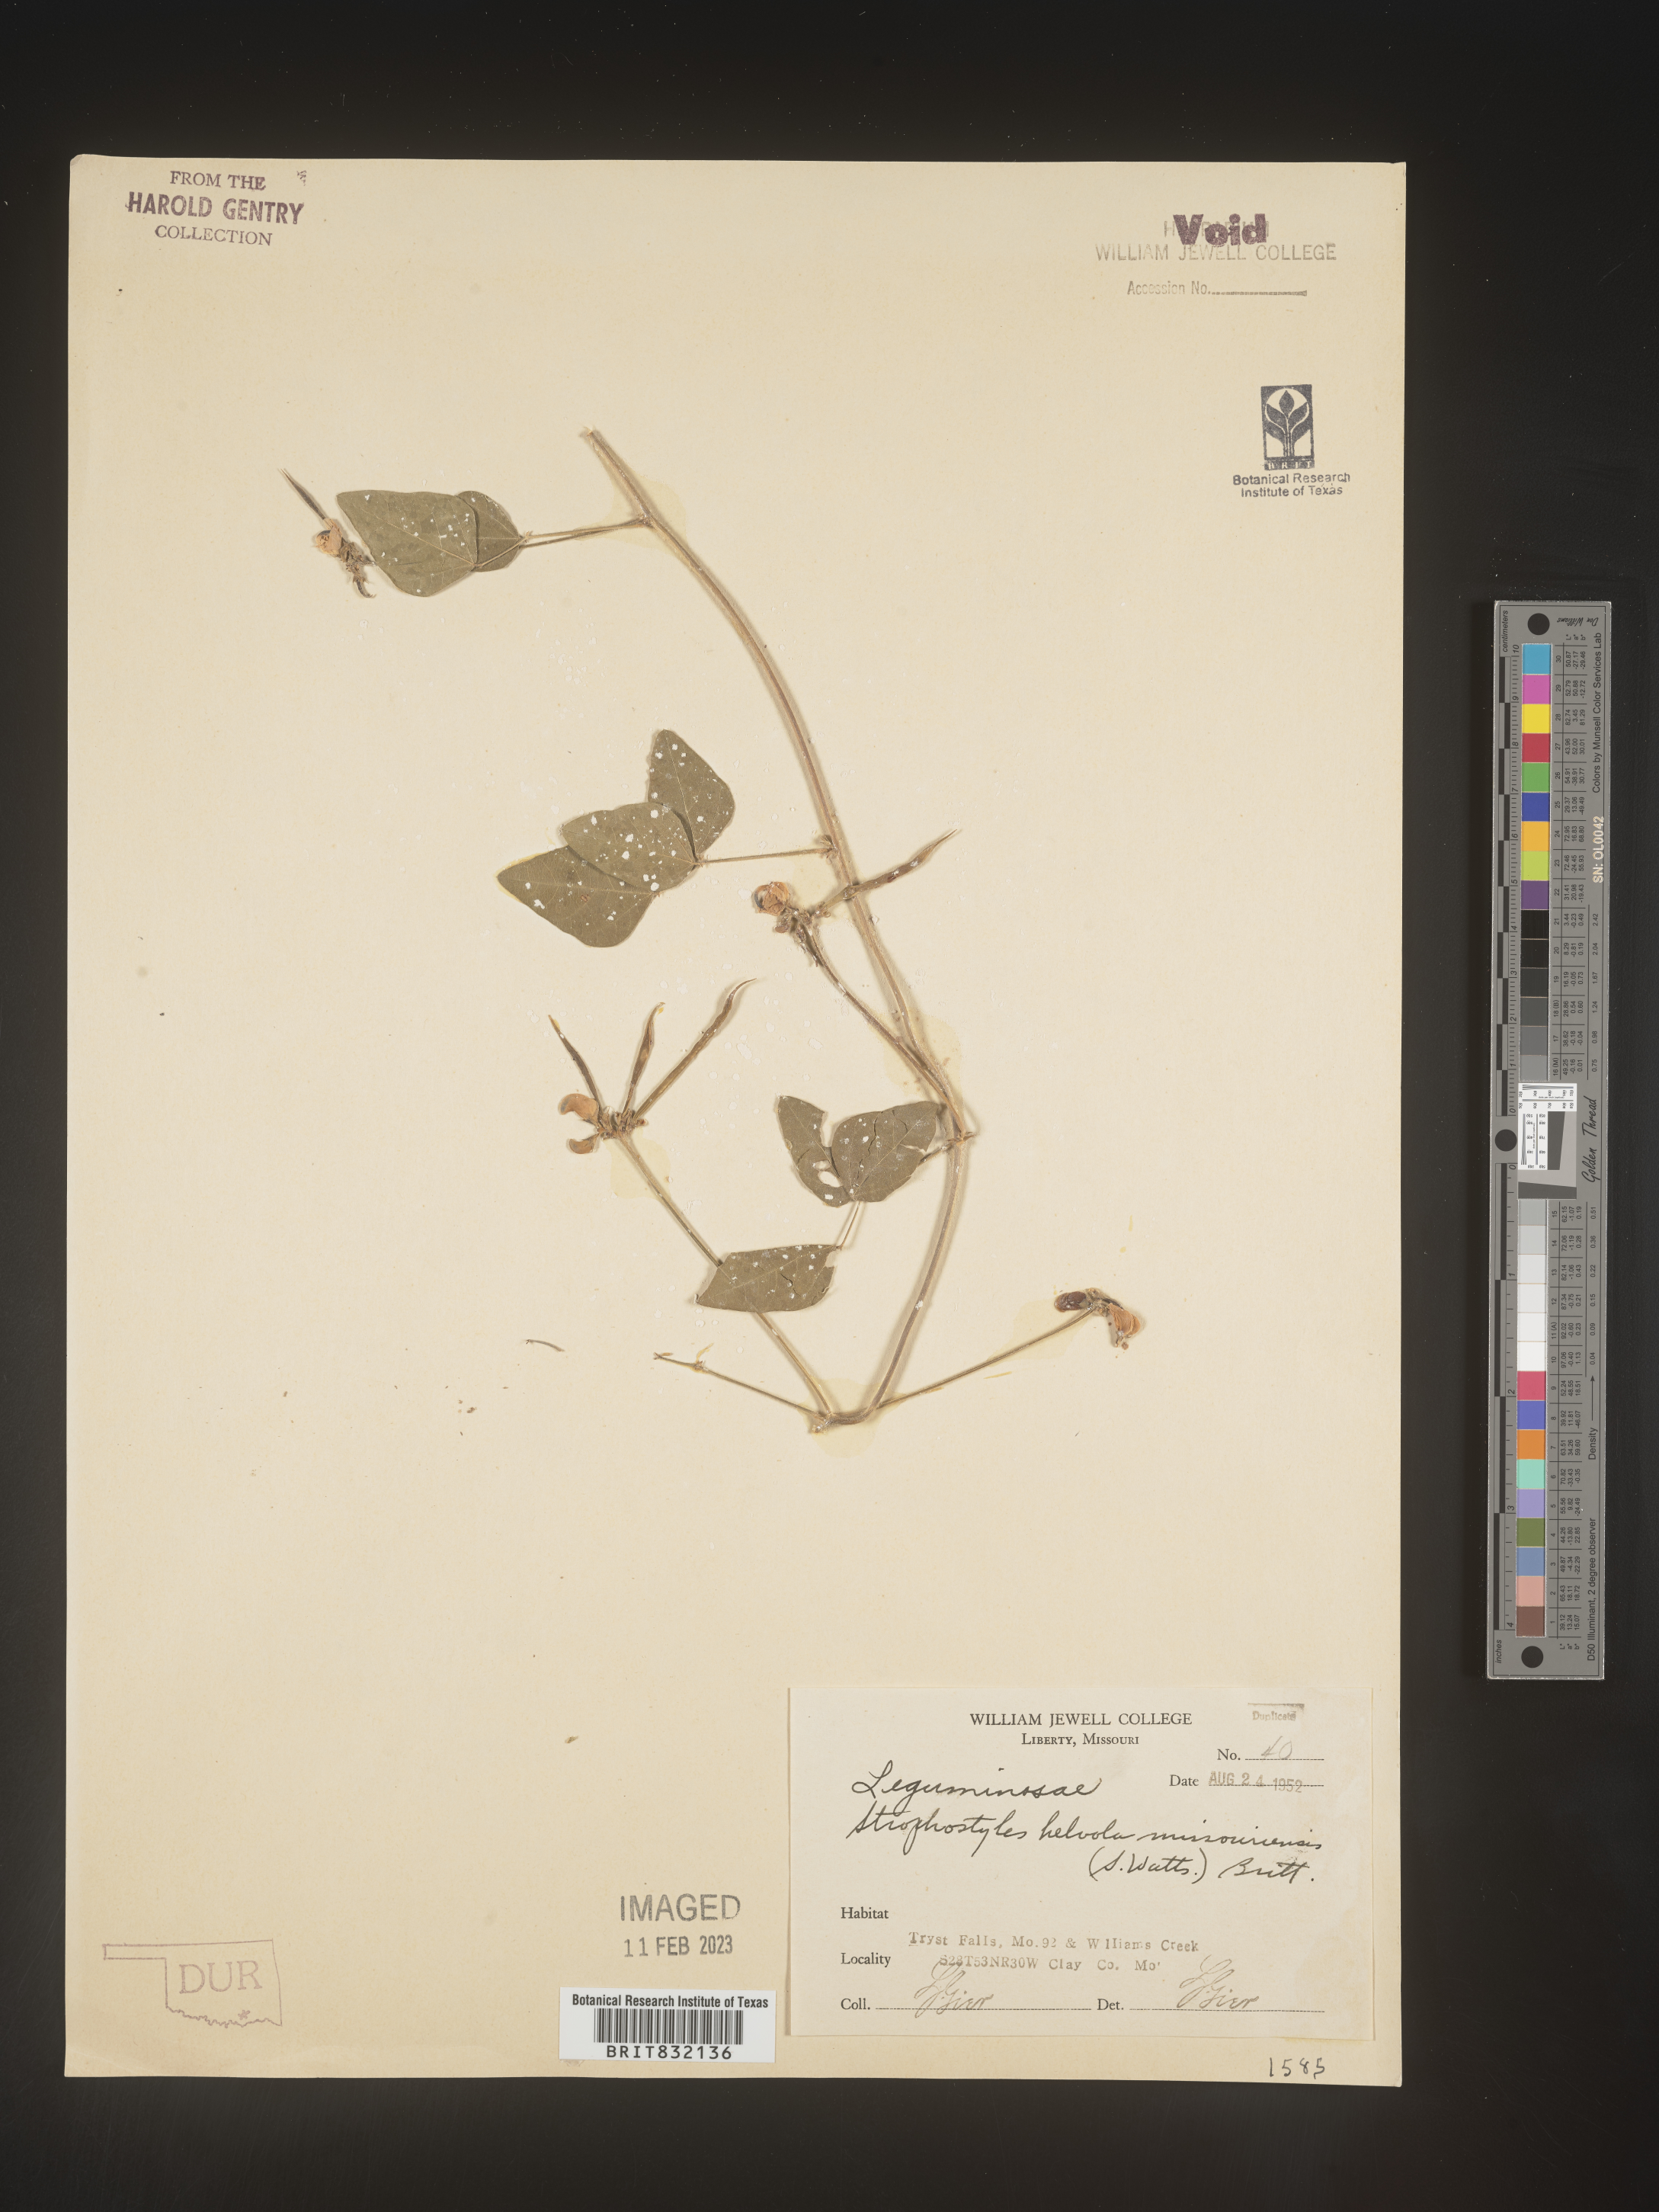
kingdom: Plantae
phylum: Tracheophyta
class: Magnoliopsida
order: Fabales
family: Fabaceae
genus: Strophostyles
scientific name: Strophostyles helvola
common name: Trailing wild bean
